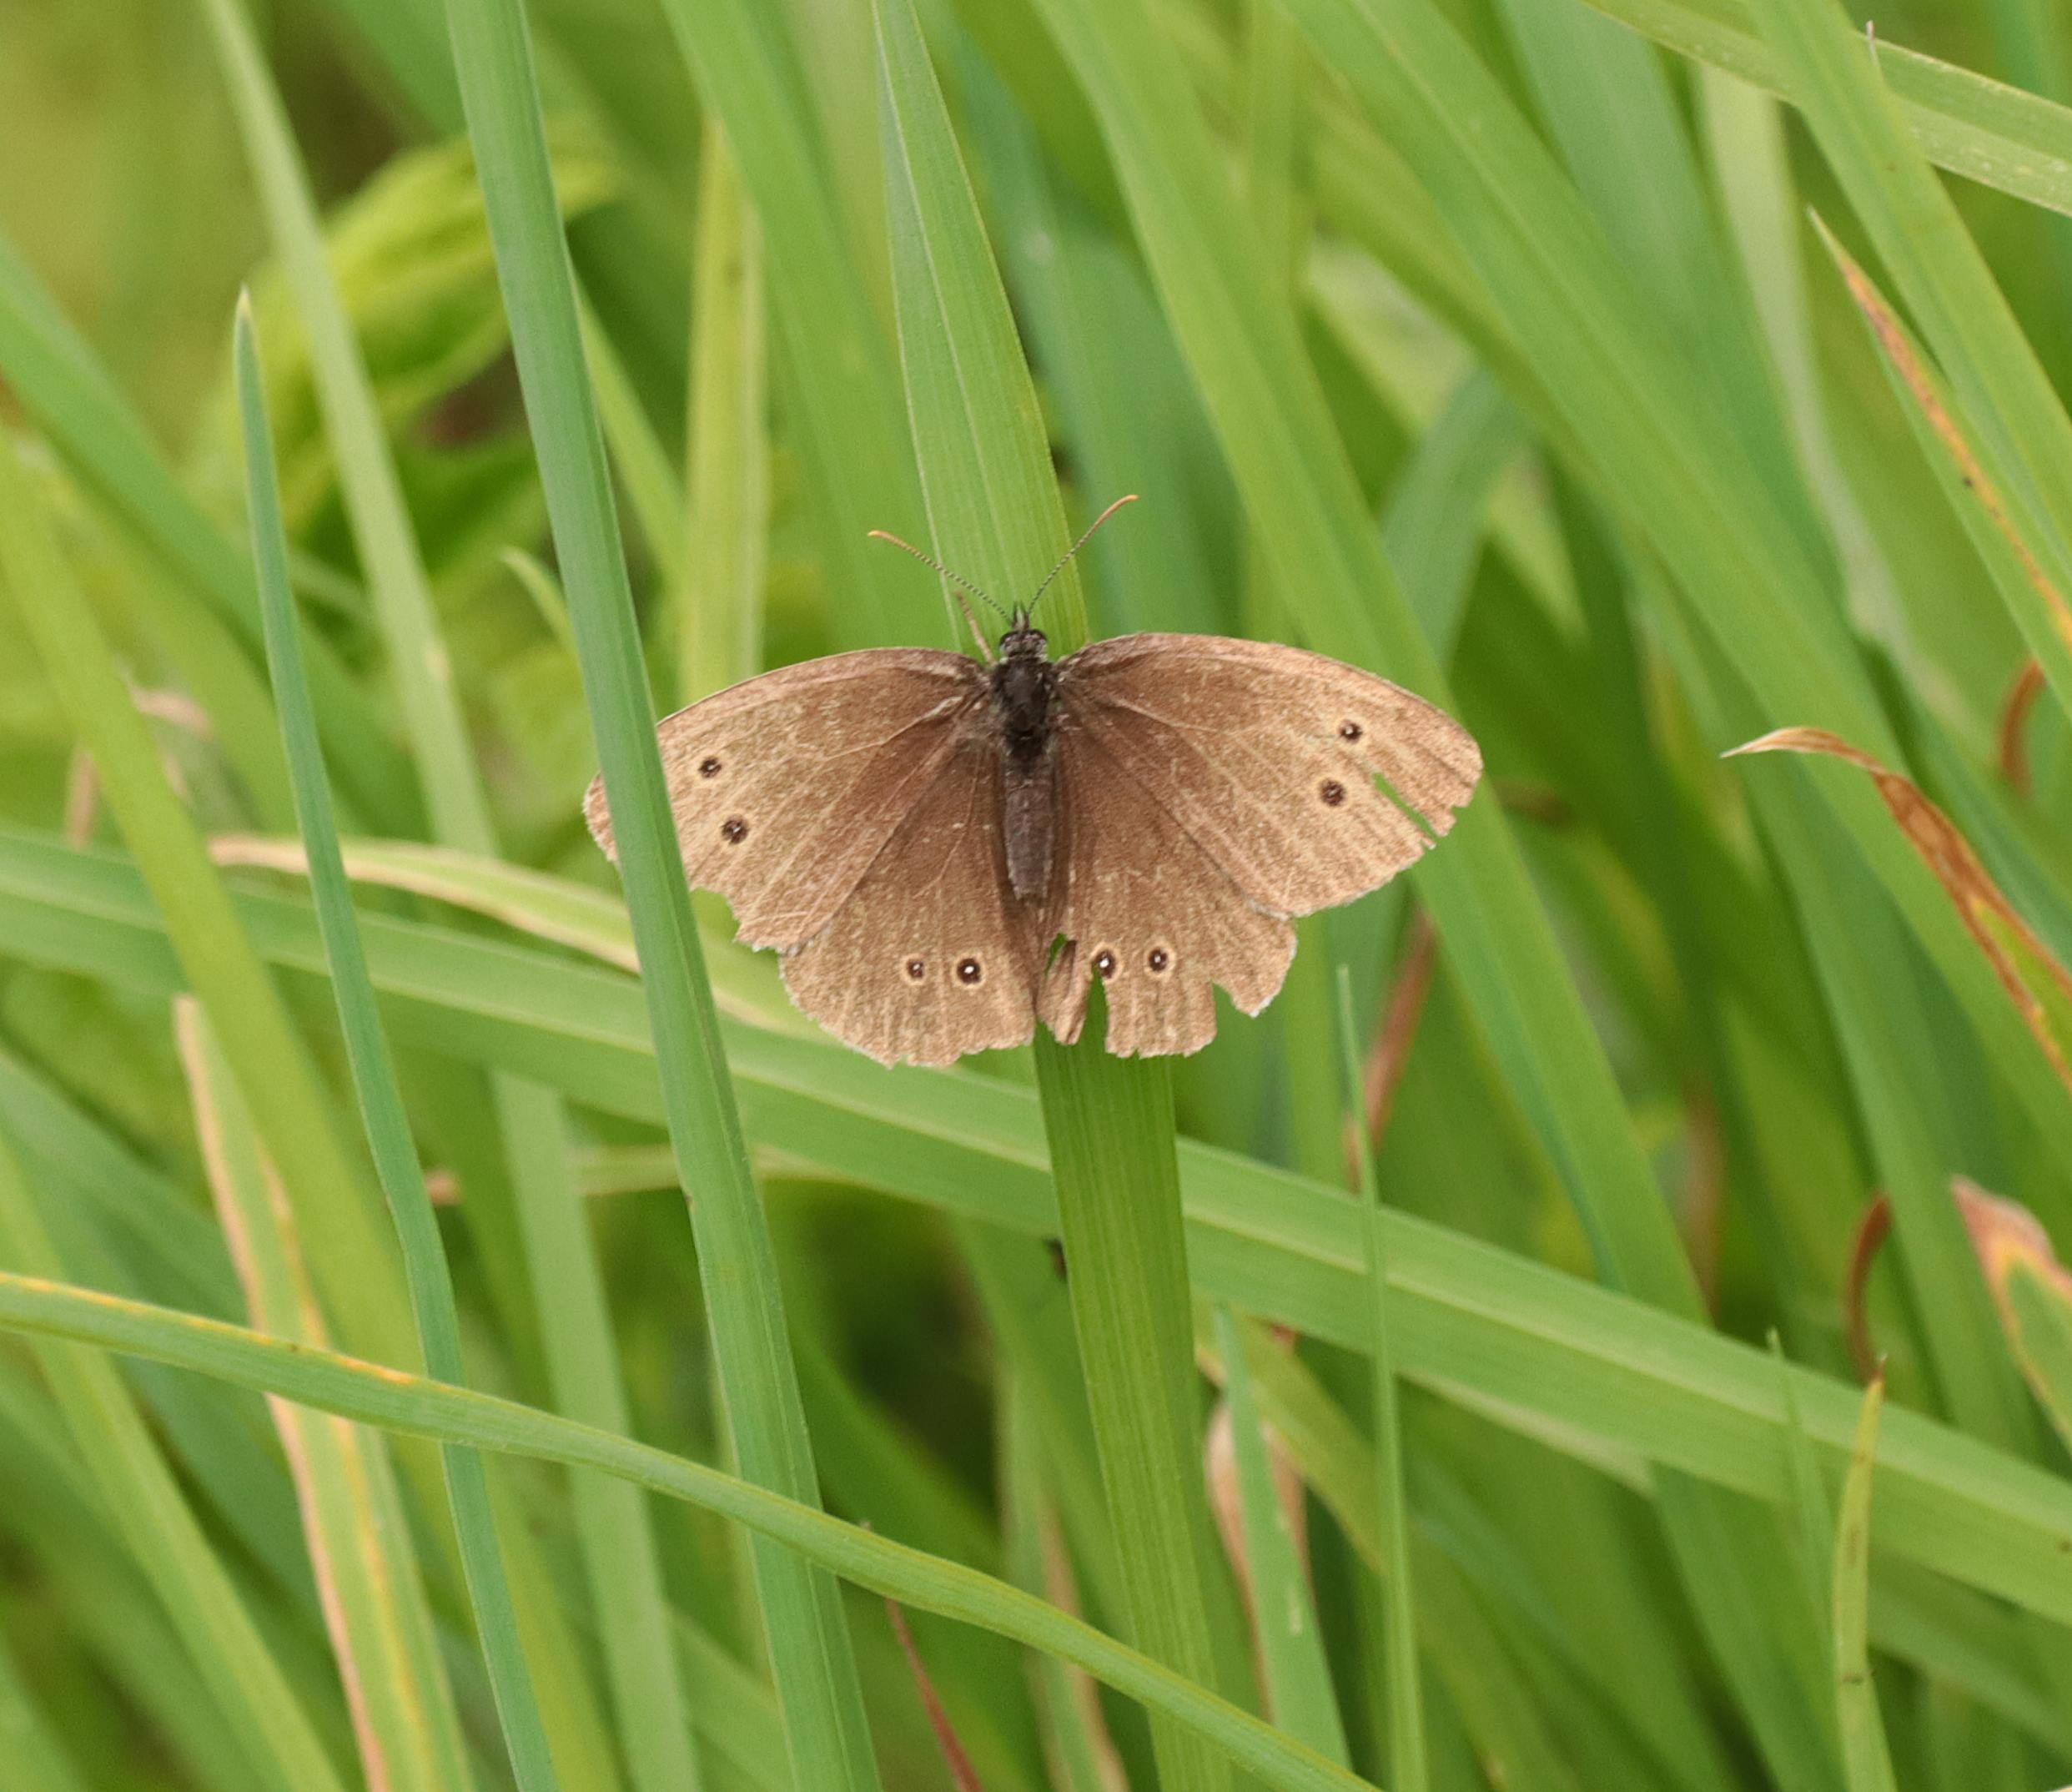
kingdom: Animalia
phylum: Arthropoda
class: Insecta
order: Lepidoptera
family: Nymphalidae
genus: Aphantopus
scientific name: Aphantopus hyperantus
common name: Engrandøje
